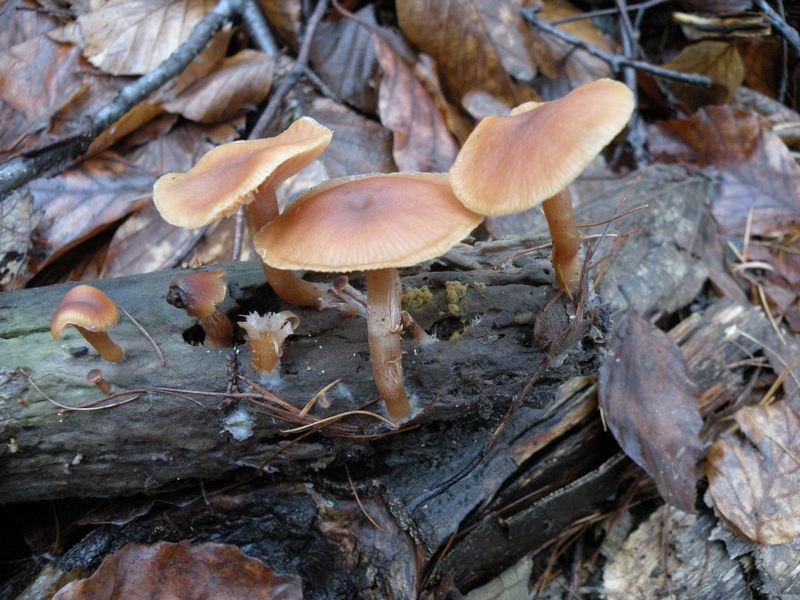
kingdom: Fungi
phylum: Basidiomycota
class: Agaricomycetes
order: Agaricales
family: Tubariaceae
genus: Tubaria
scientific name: Tubaria furfuracea
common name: kliddet fnughat
